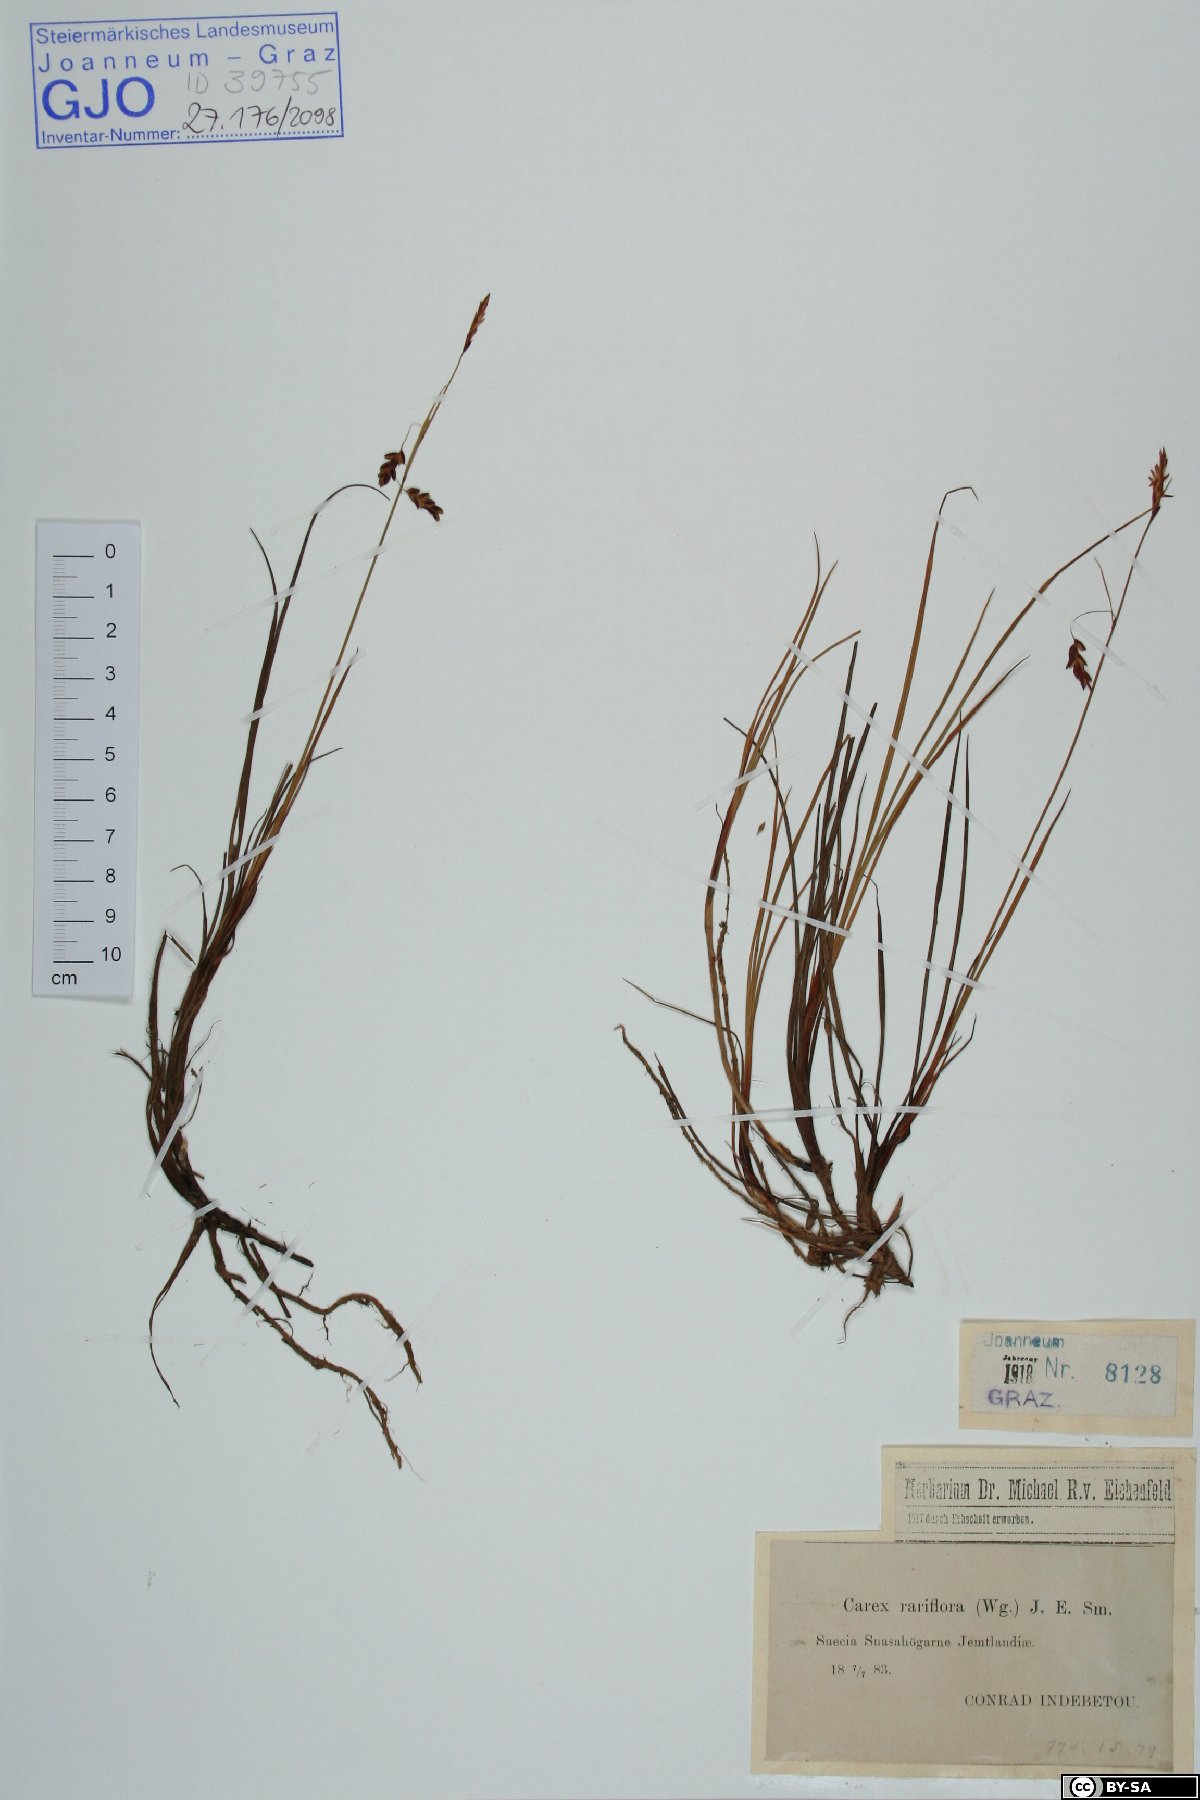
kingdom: Plantae
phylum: Tracheophyta
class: Liliopsida
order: Poales
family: Cyperaceae
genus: Carex
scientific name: Carex rariflora
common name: Loose-flowered alpine sedge
